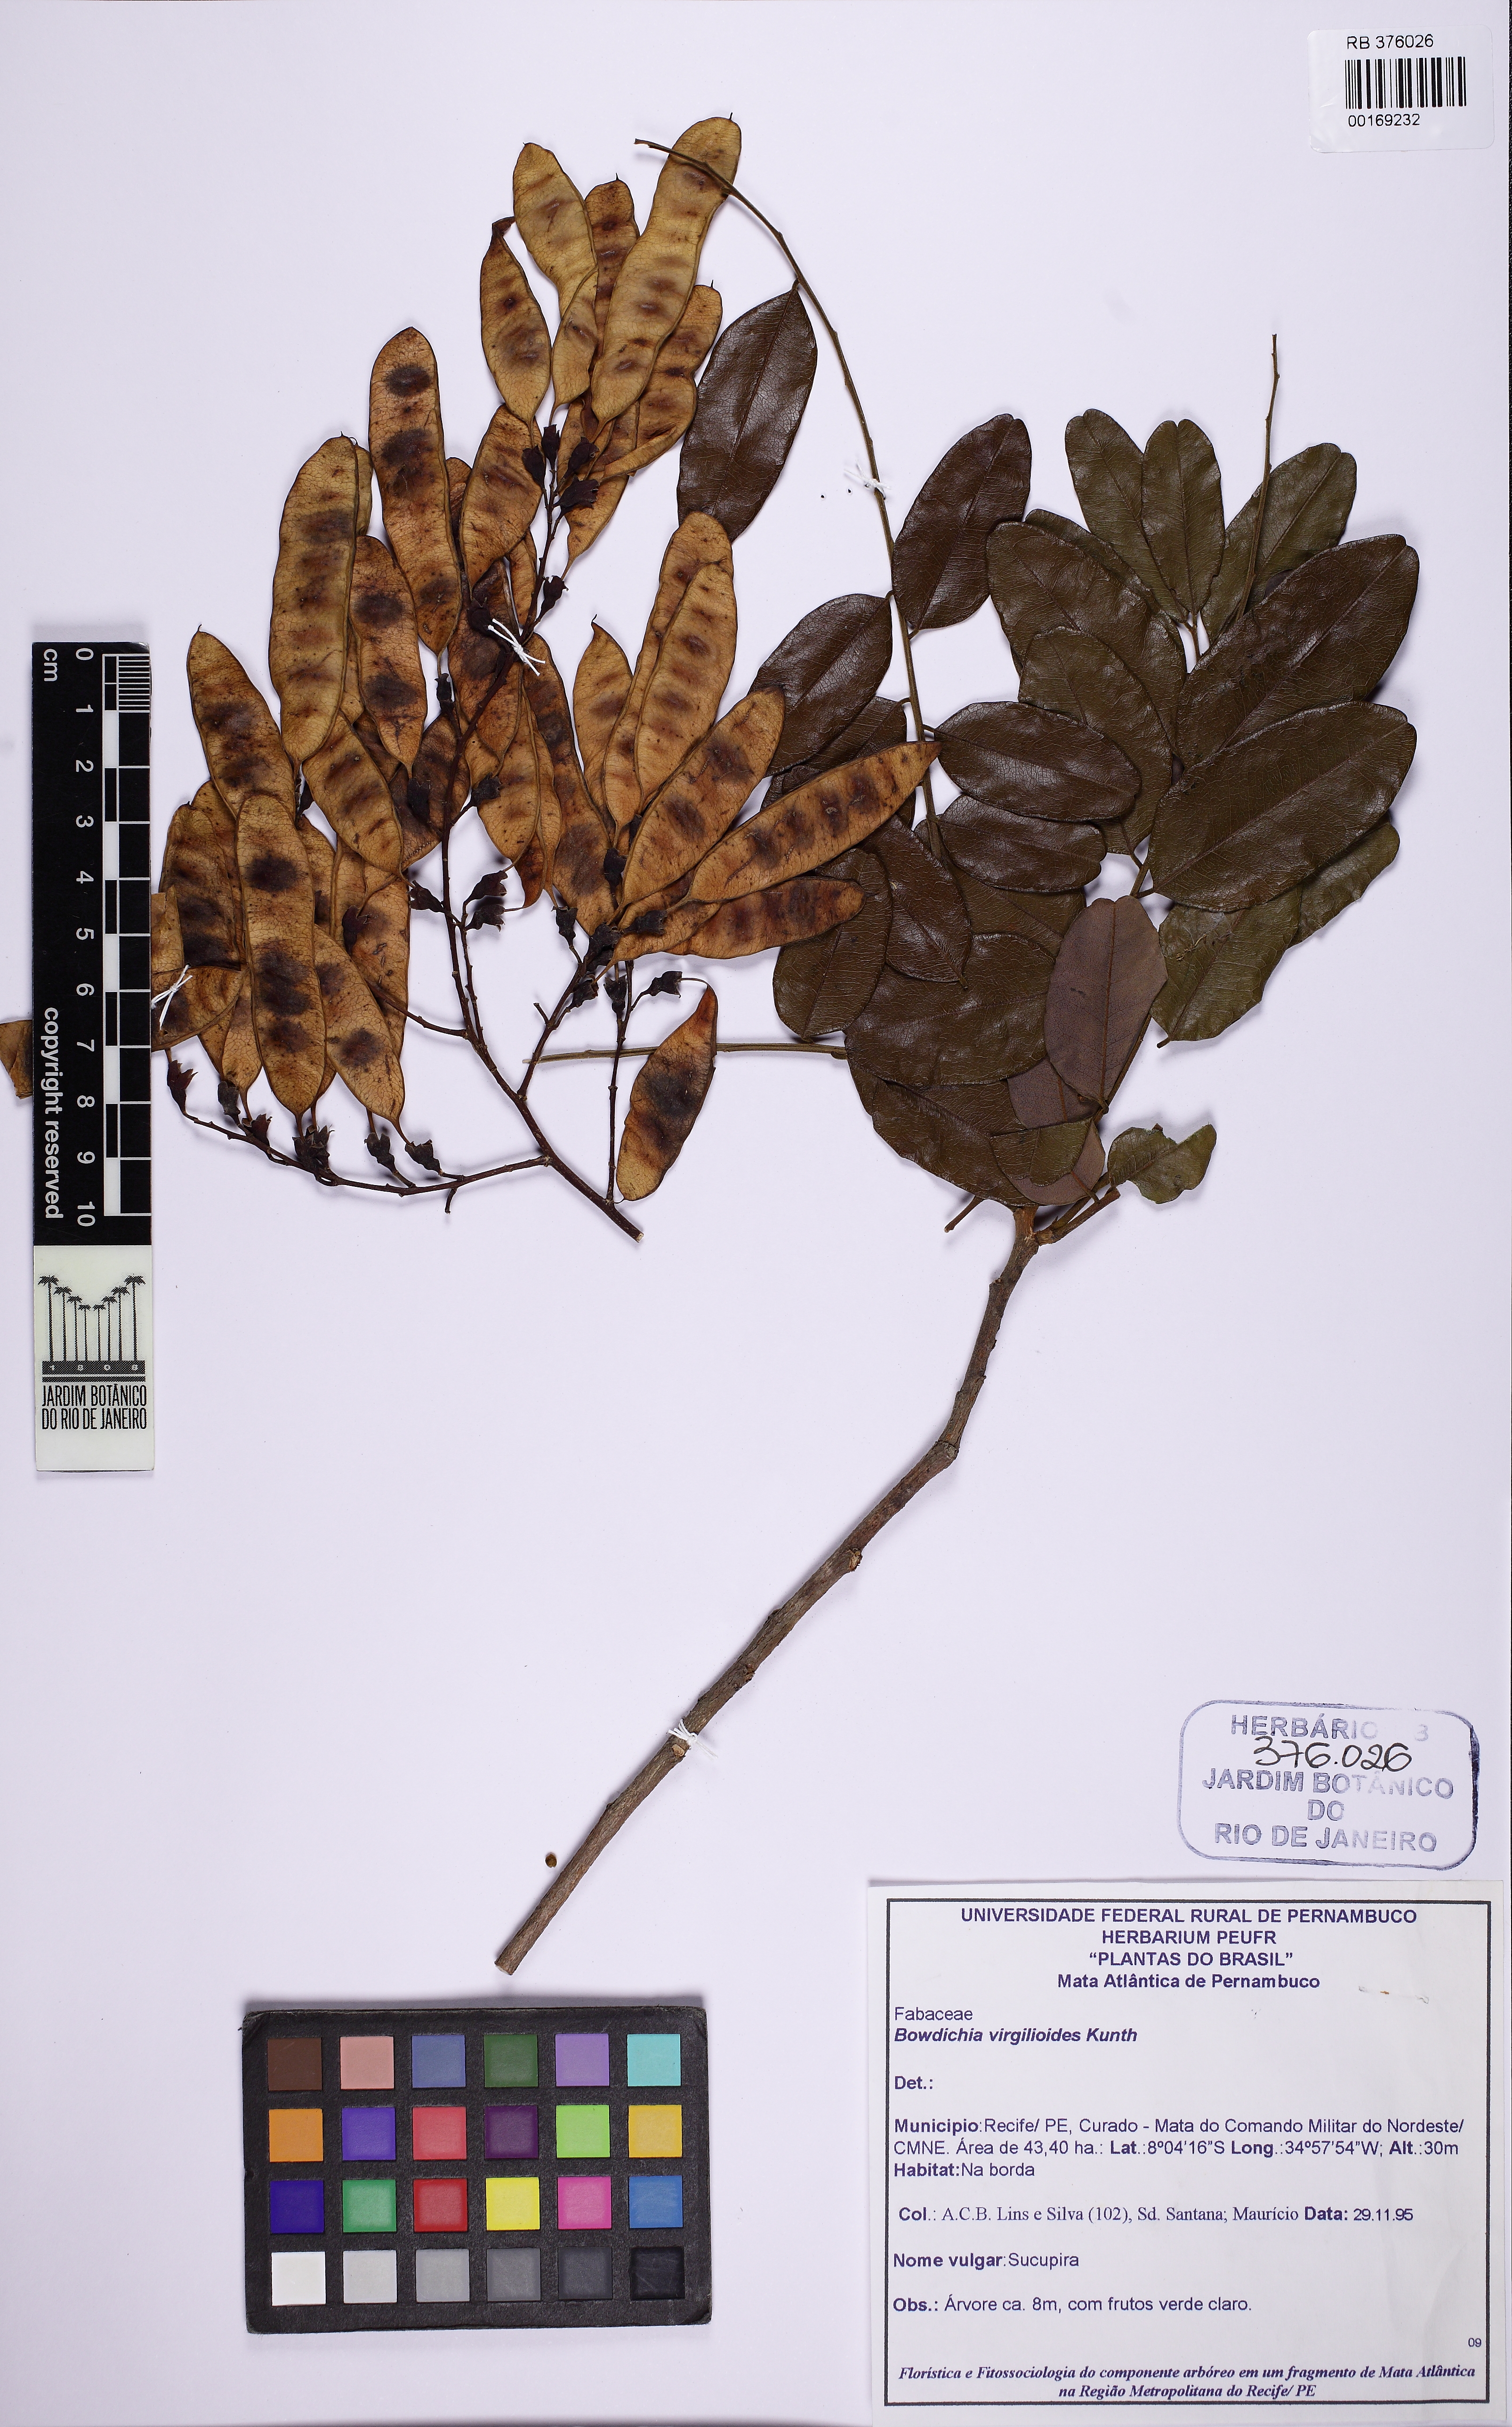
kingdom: Plantae
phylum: Tracheophyta
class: Magnoliopsida
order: Fabales
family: Fabaceae
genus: Bowdichia
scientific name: Bowdichia virgilioides
